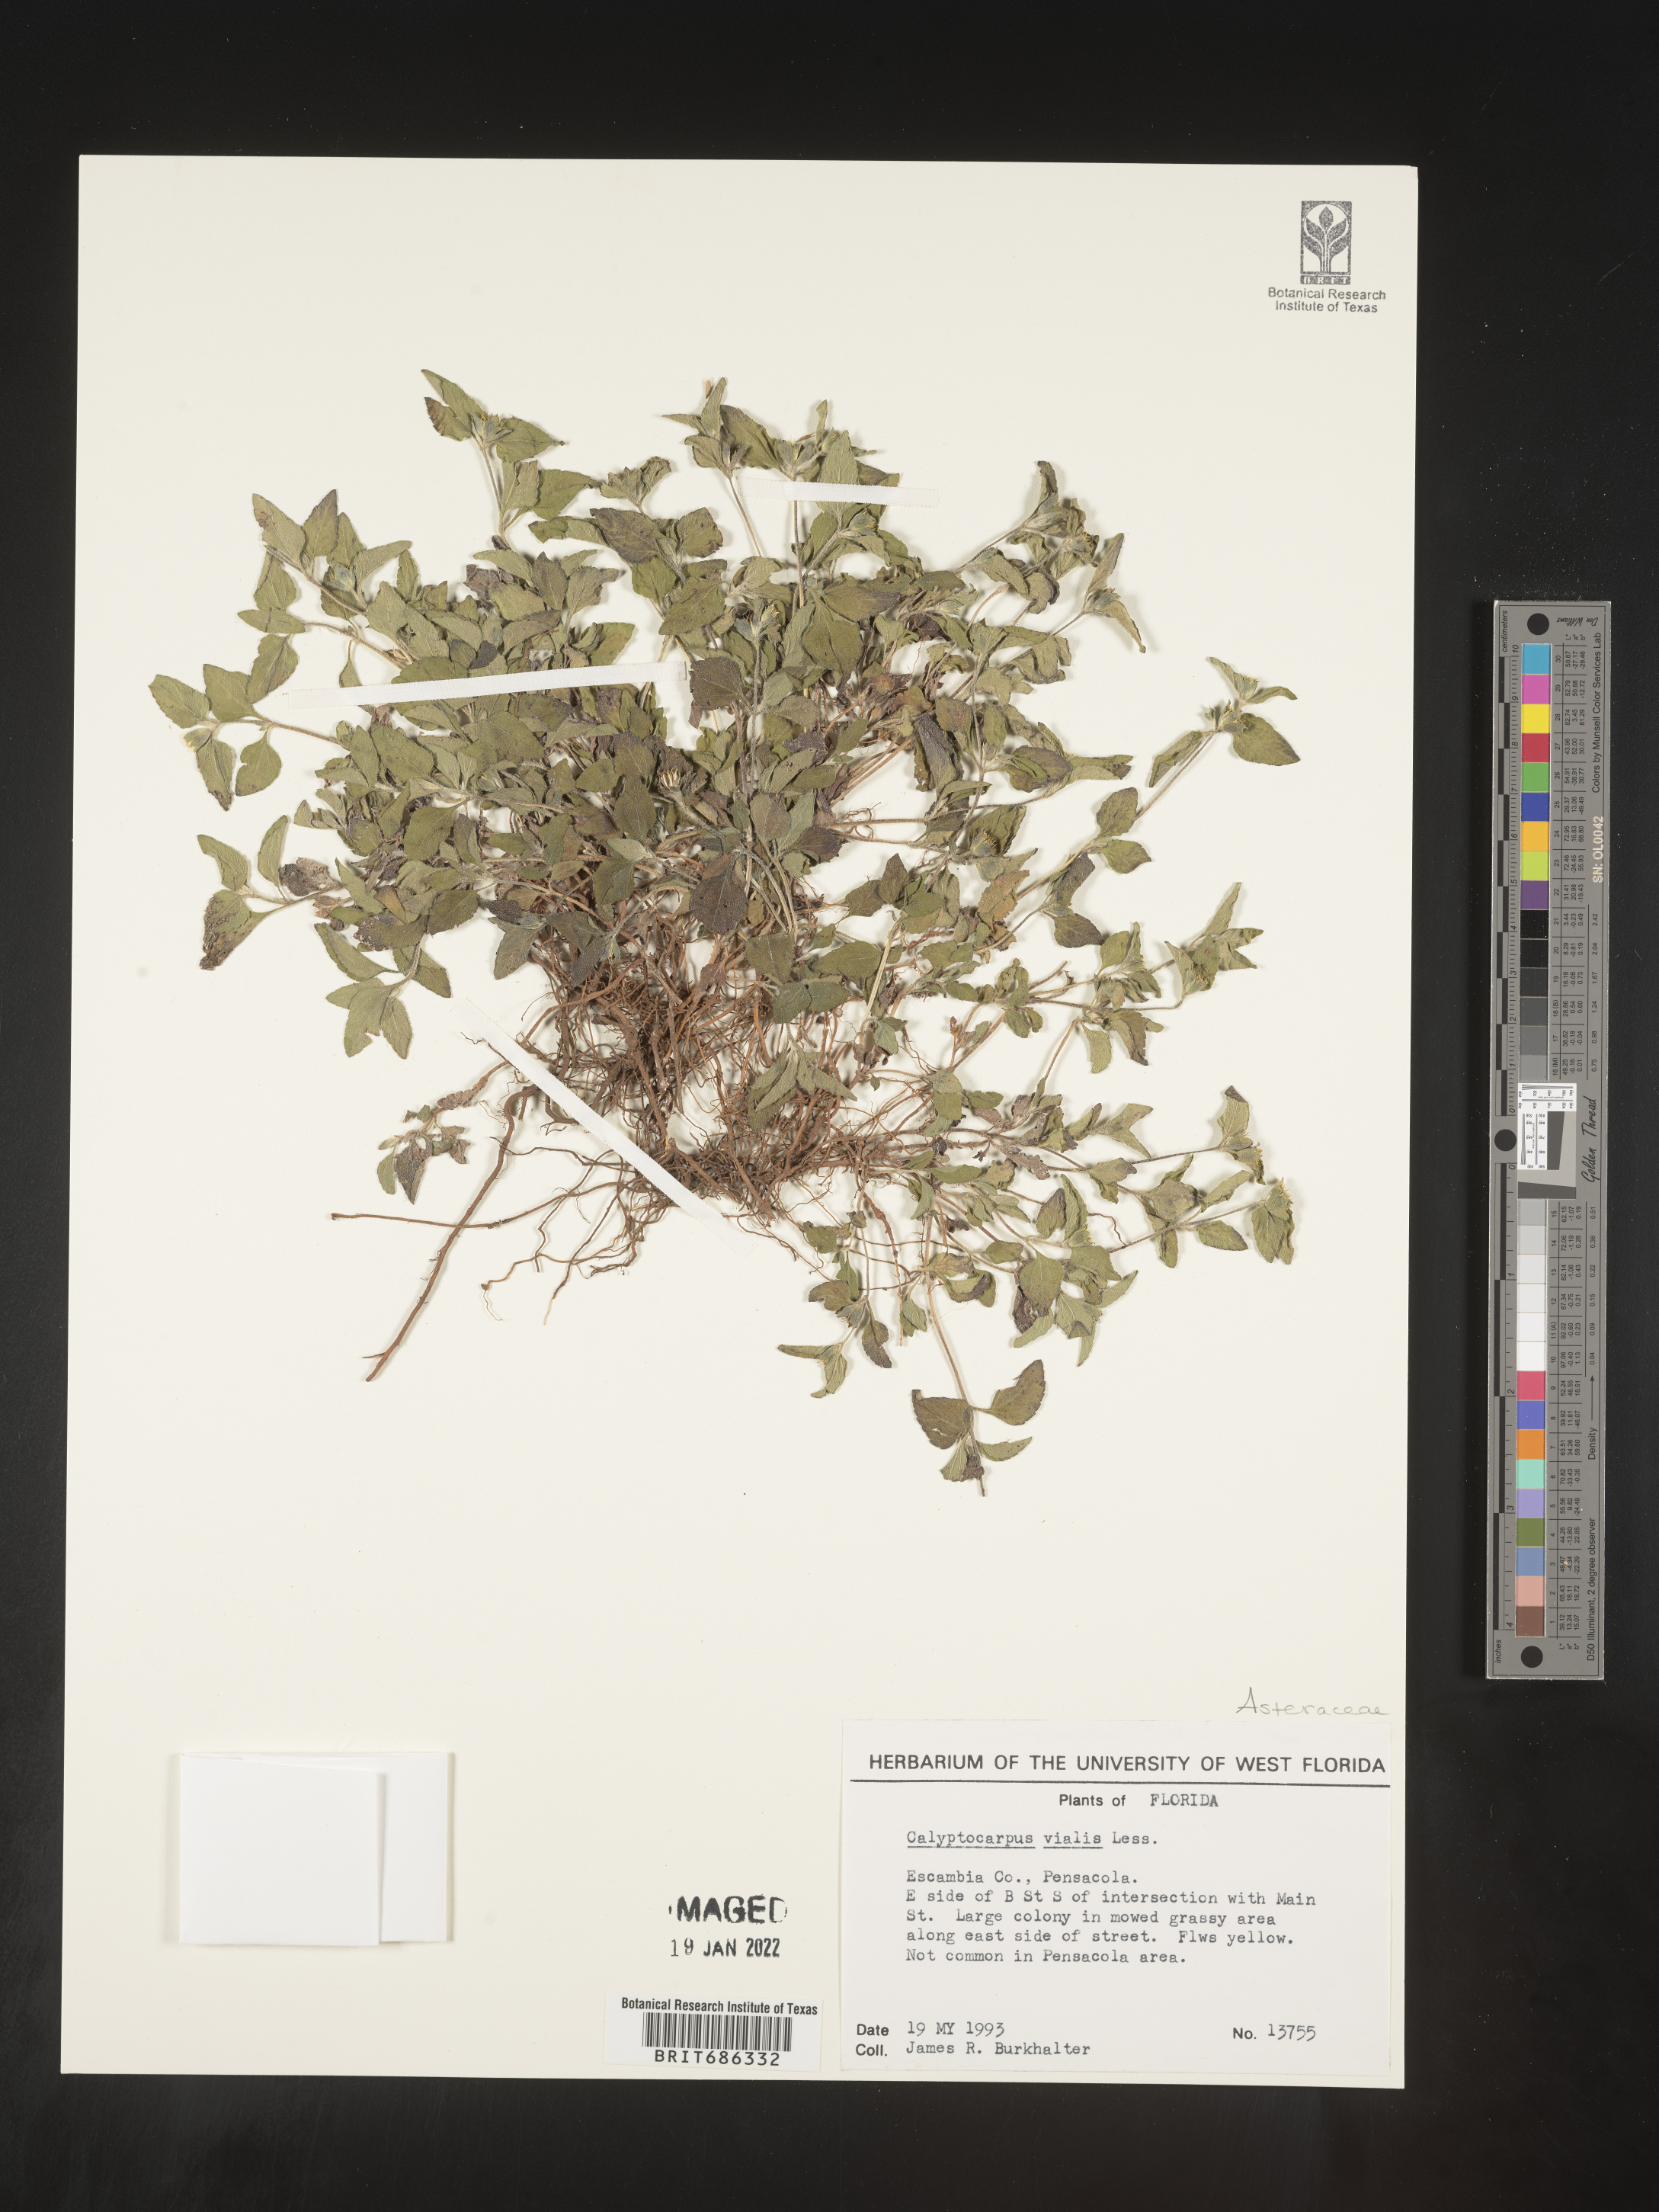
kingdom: Plantae
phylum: Tracheophyta
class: Magnoliopsida
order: Asterales
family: Asteraceae
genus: Calyptocarpus
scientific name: Calyptocarpus
